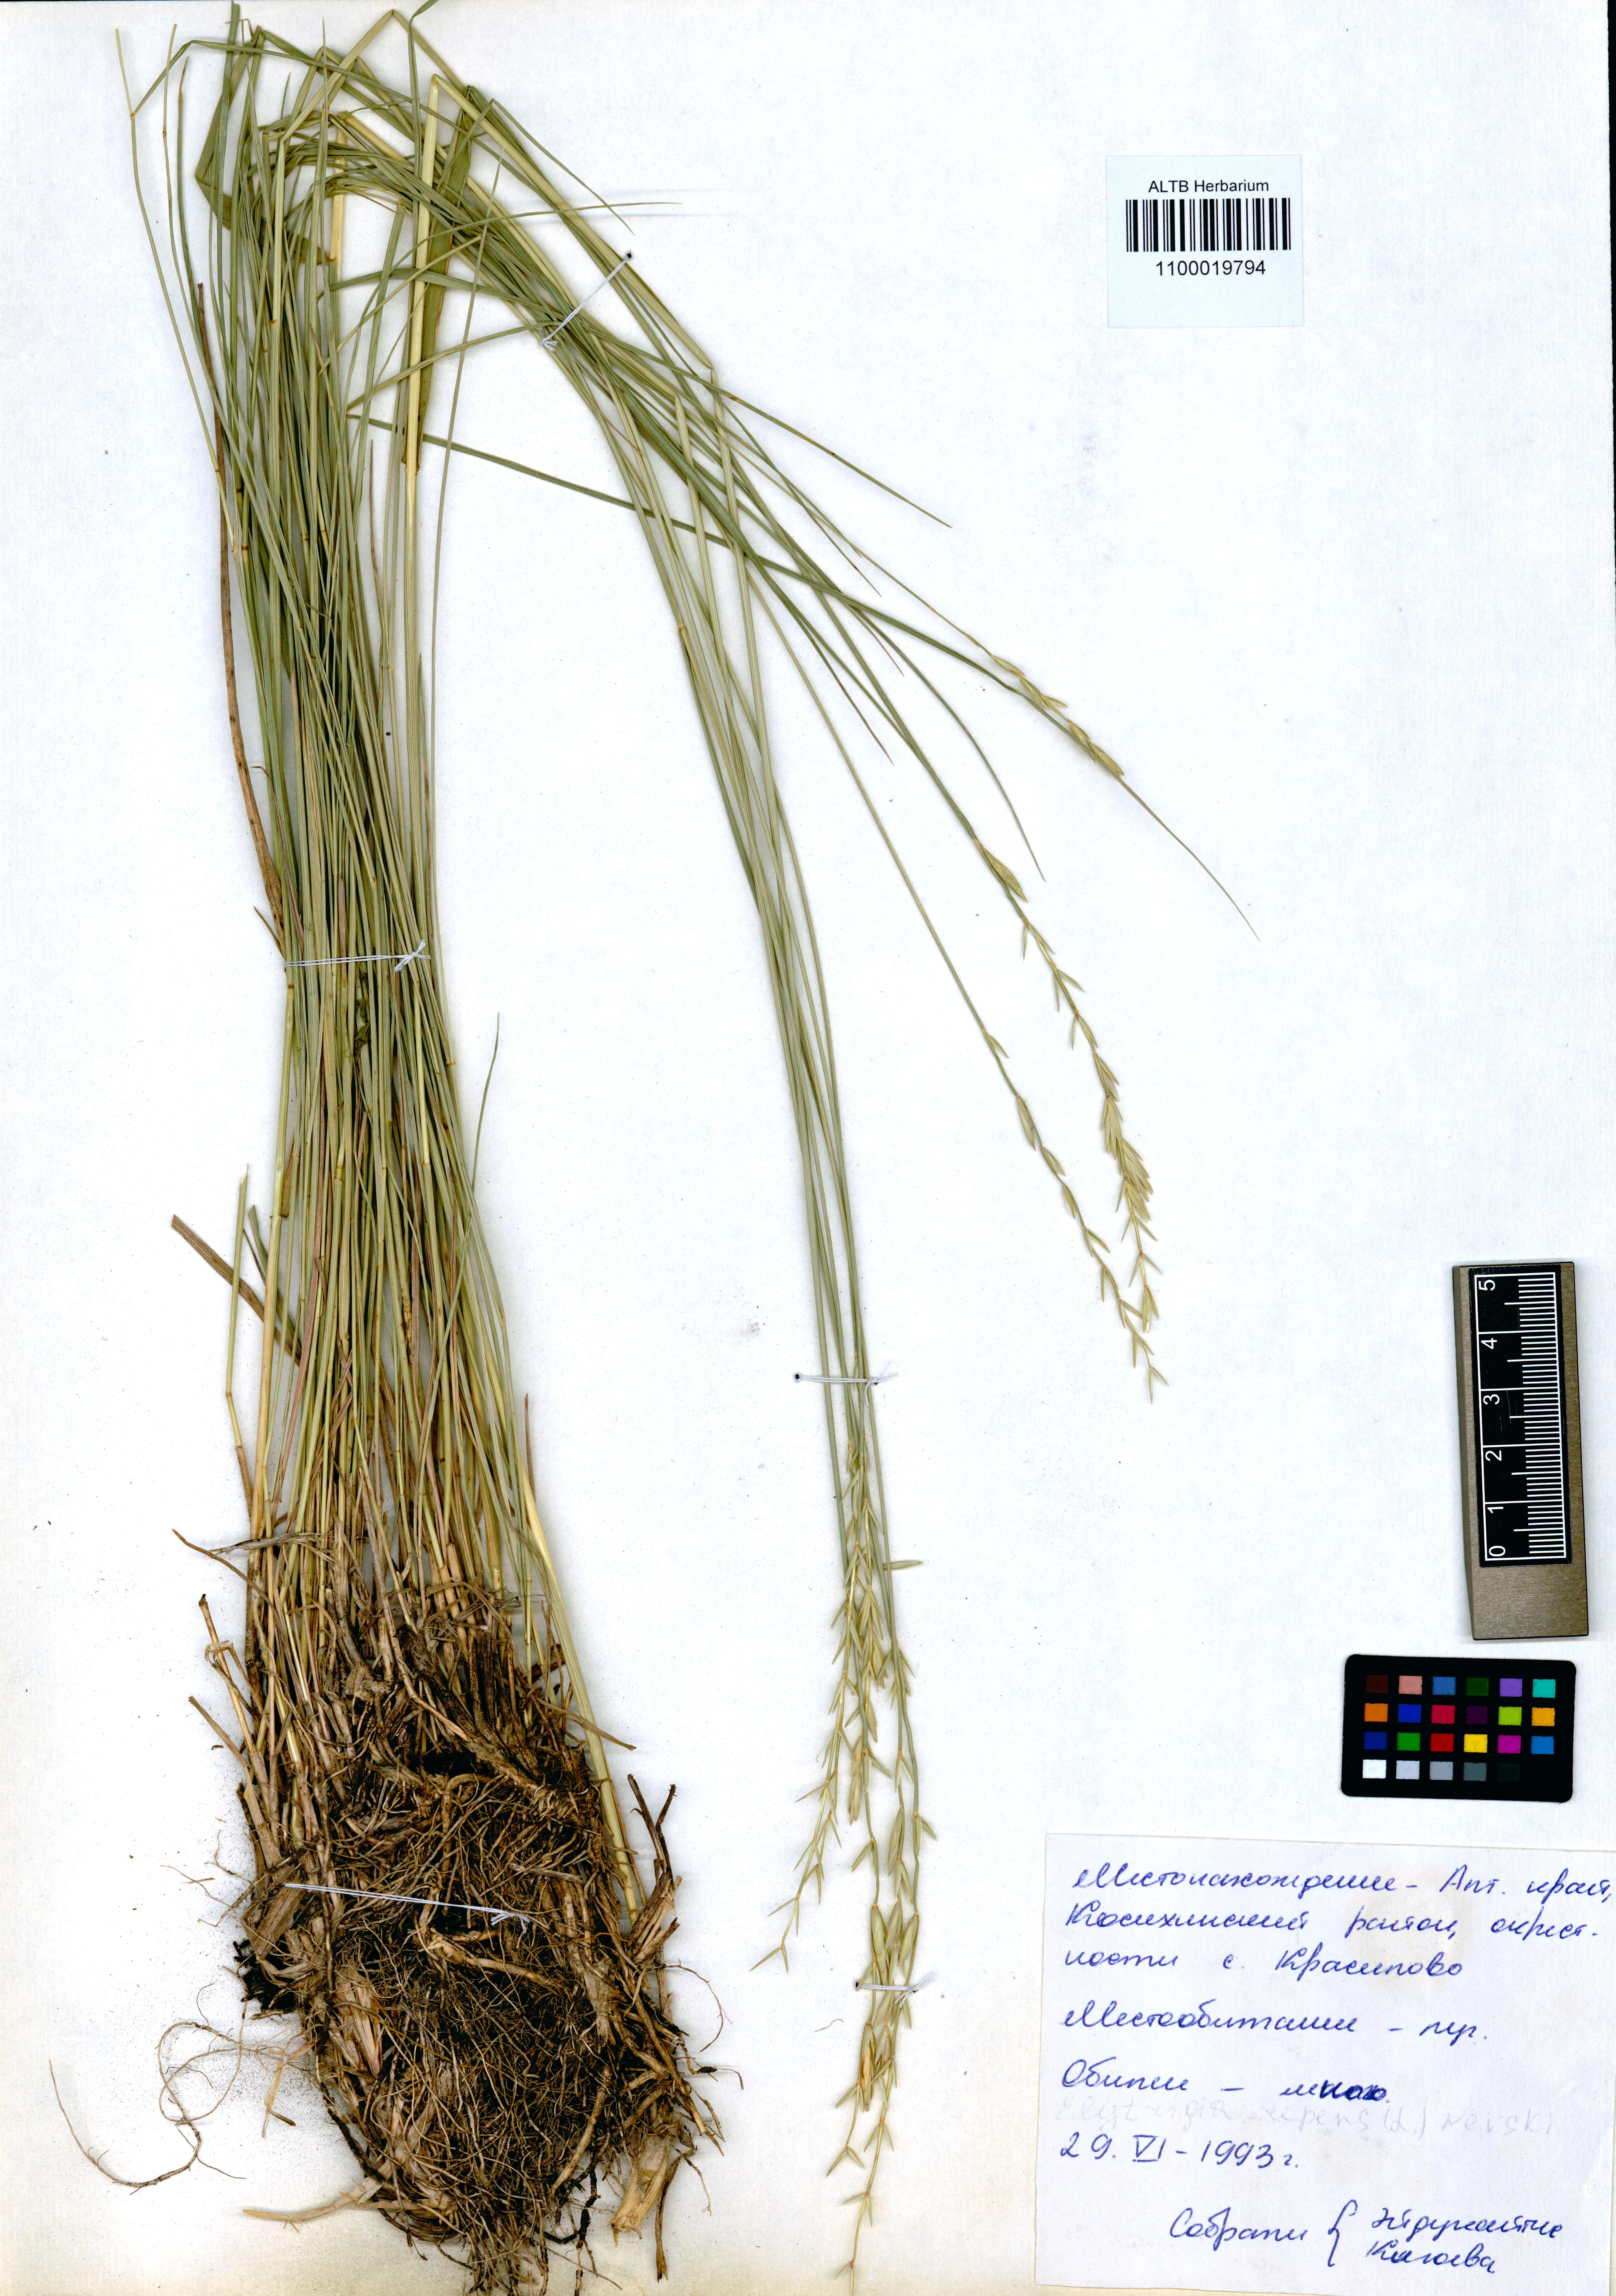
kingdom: Plantae
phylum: Tracheophyta
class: Liliopsida
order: Poales
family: Poaceae
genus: Elymus
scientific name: Elymus repens
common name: Quackgrass
